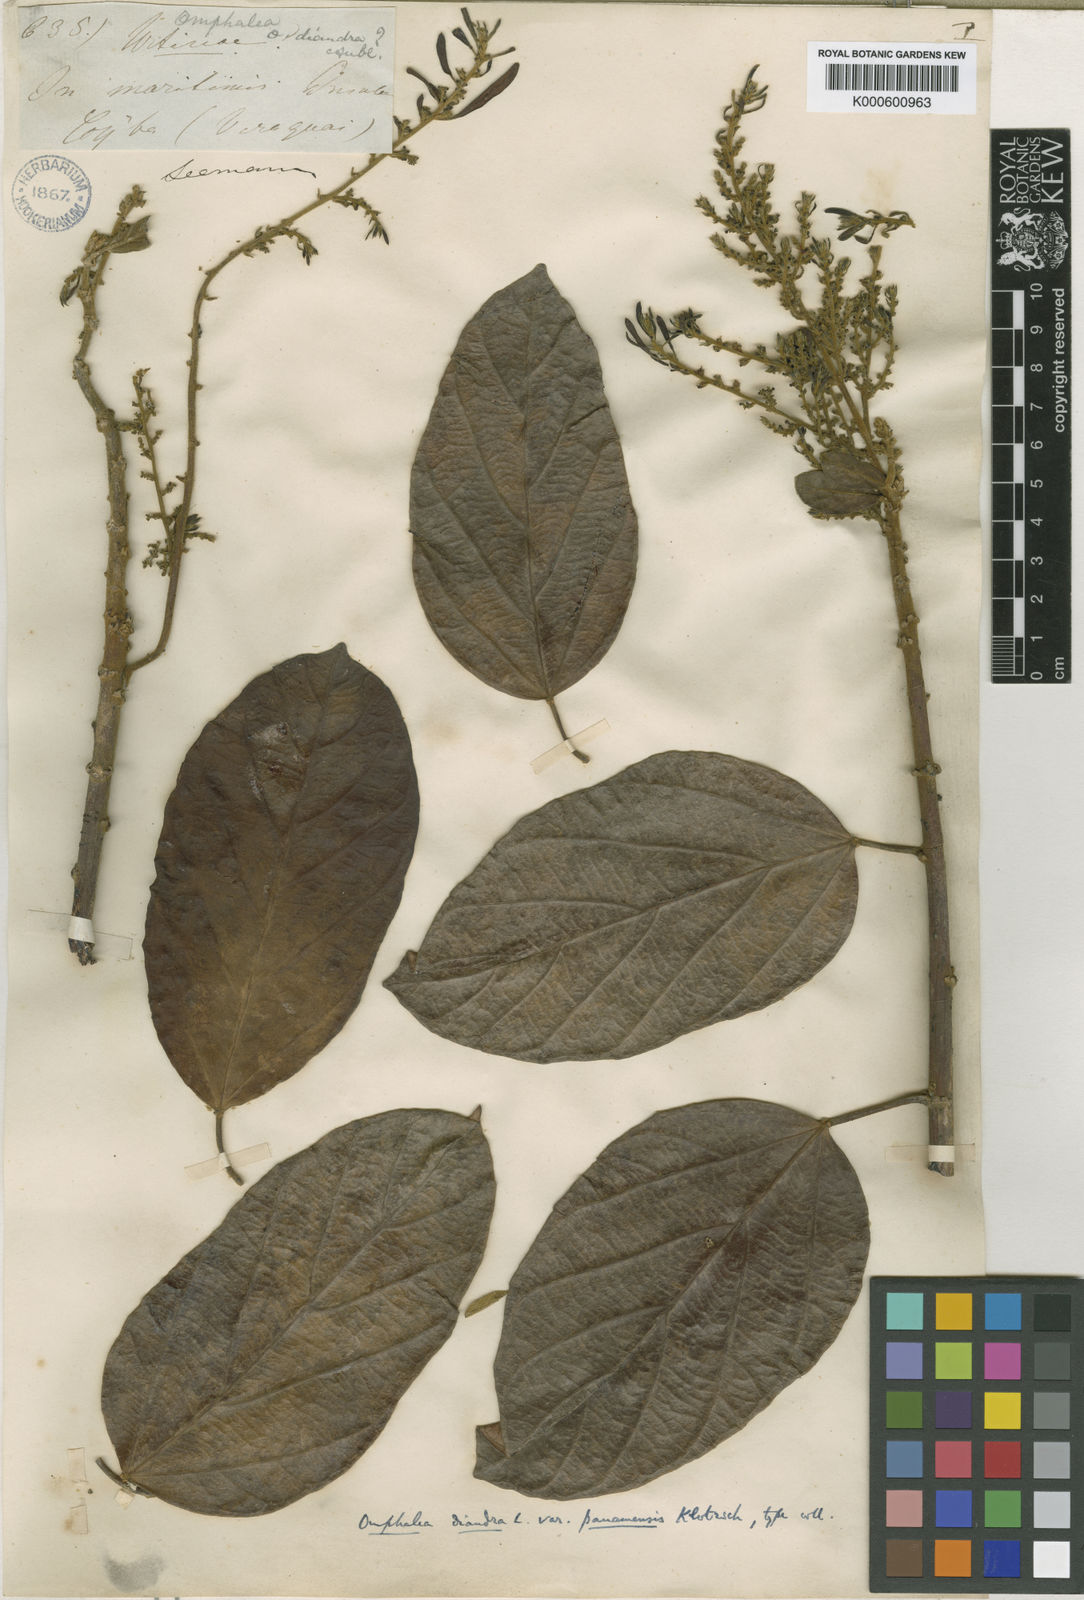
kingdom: Plantae
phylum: Tracheophyta
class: Magnoliopsida
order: Malpighiales
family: Euphorbiaceae
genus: Omphalea
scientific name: Omphalea diandra
